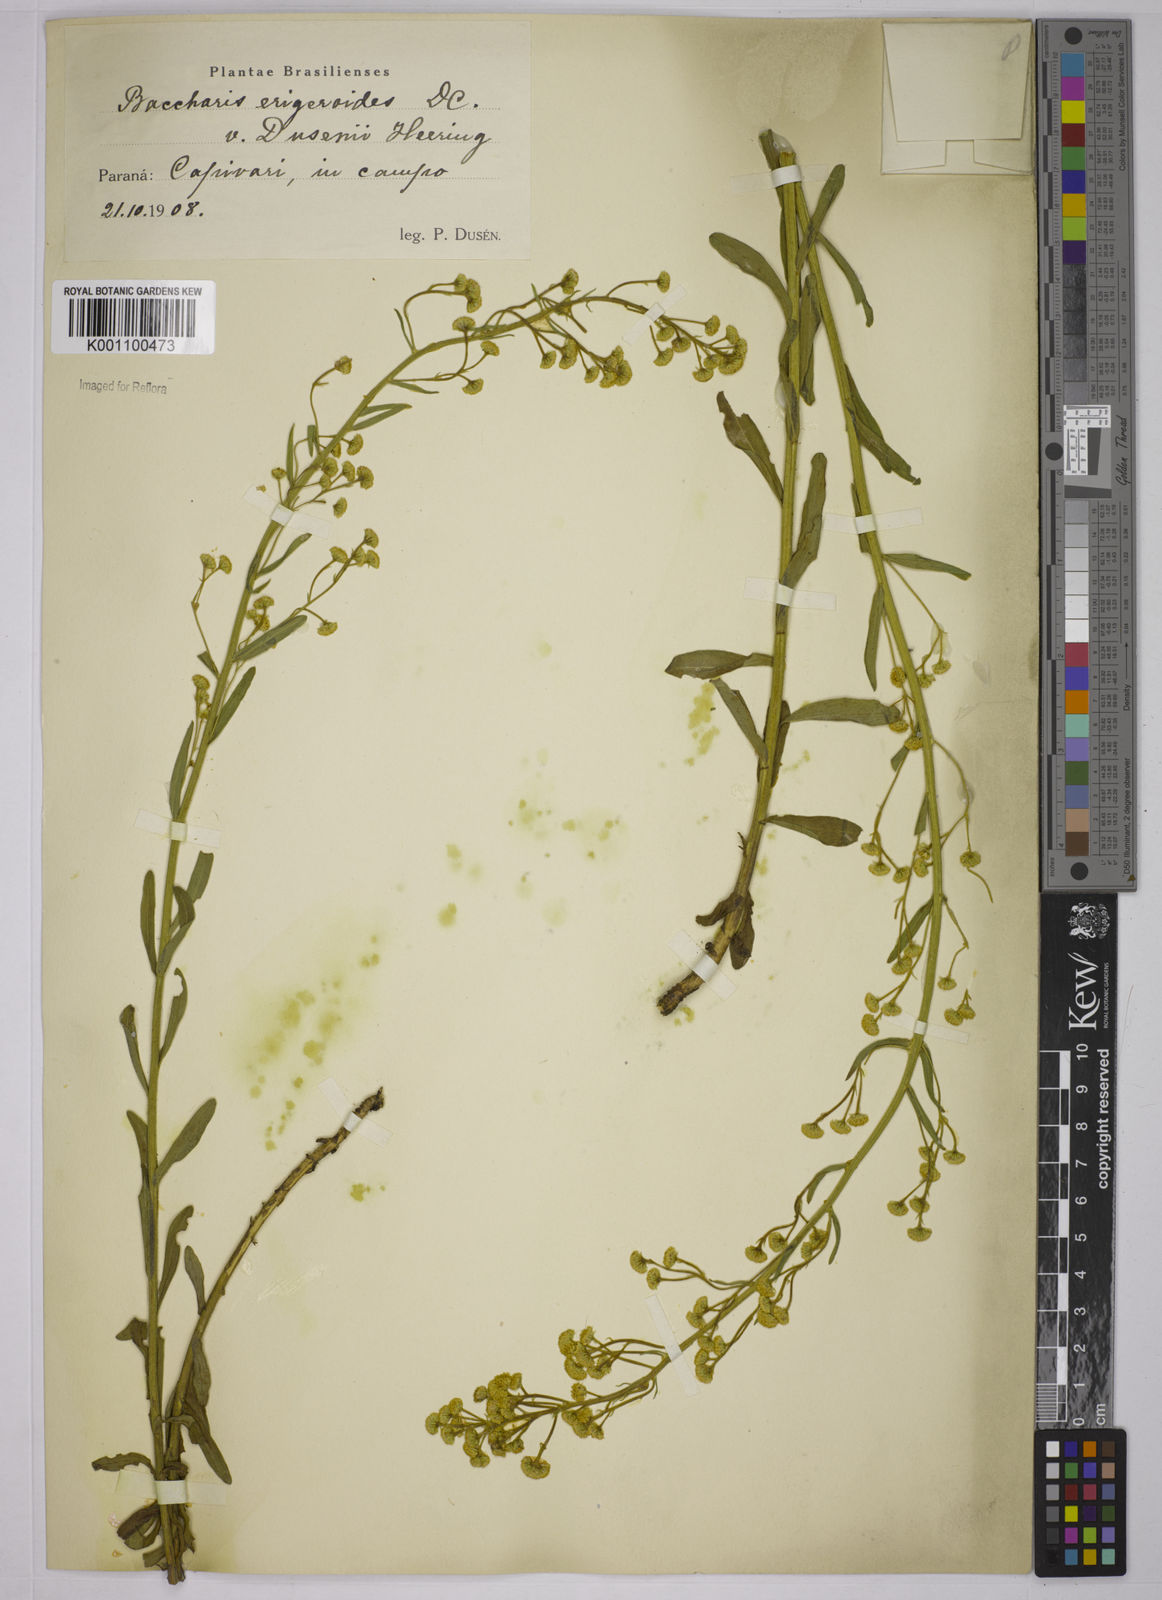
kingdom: Plantae
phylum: Tracheophyta
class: Magnoliopsida
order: Asterales
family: Asteraceae
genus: Baccharis
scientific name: Baccharis erigeroides
